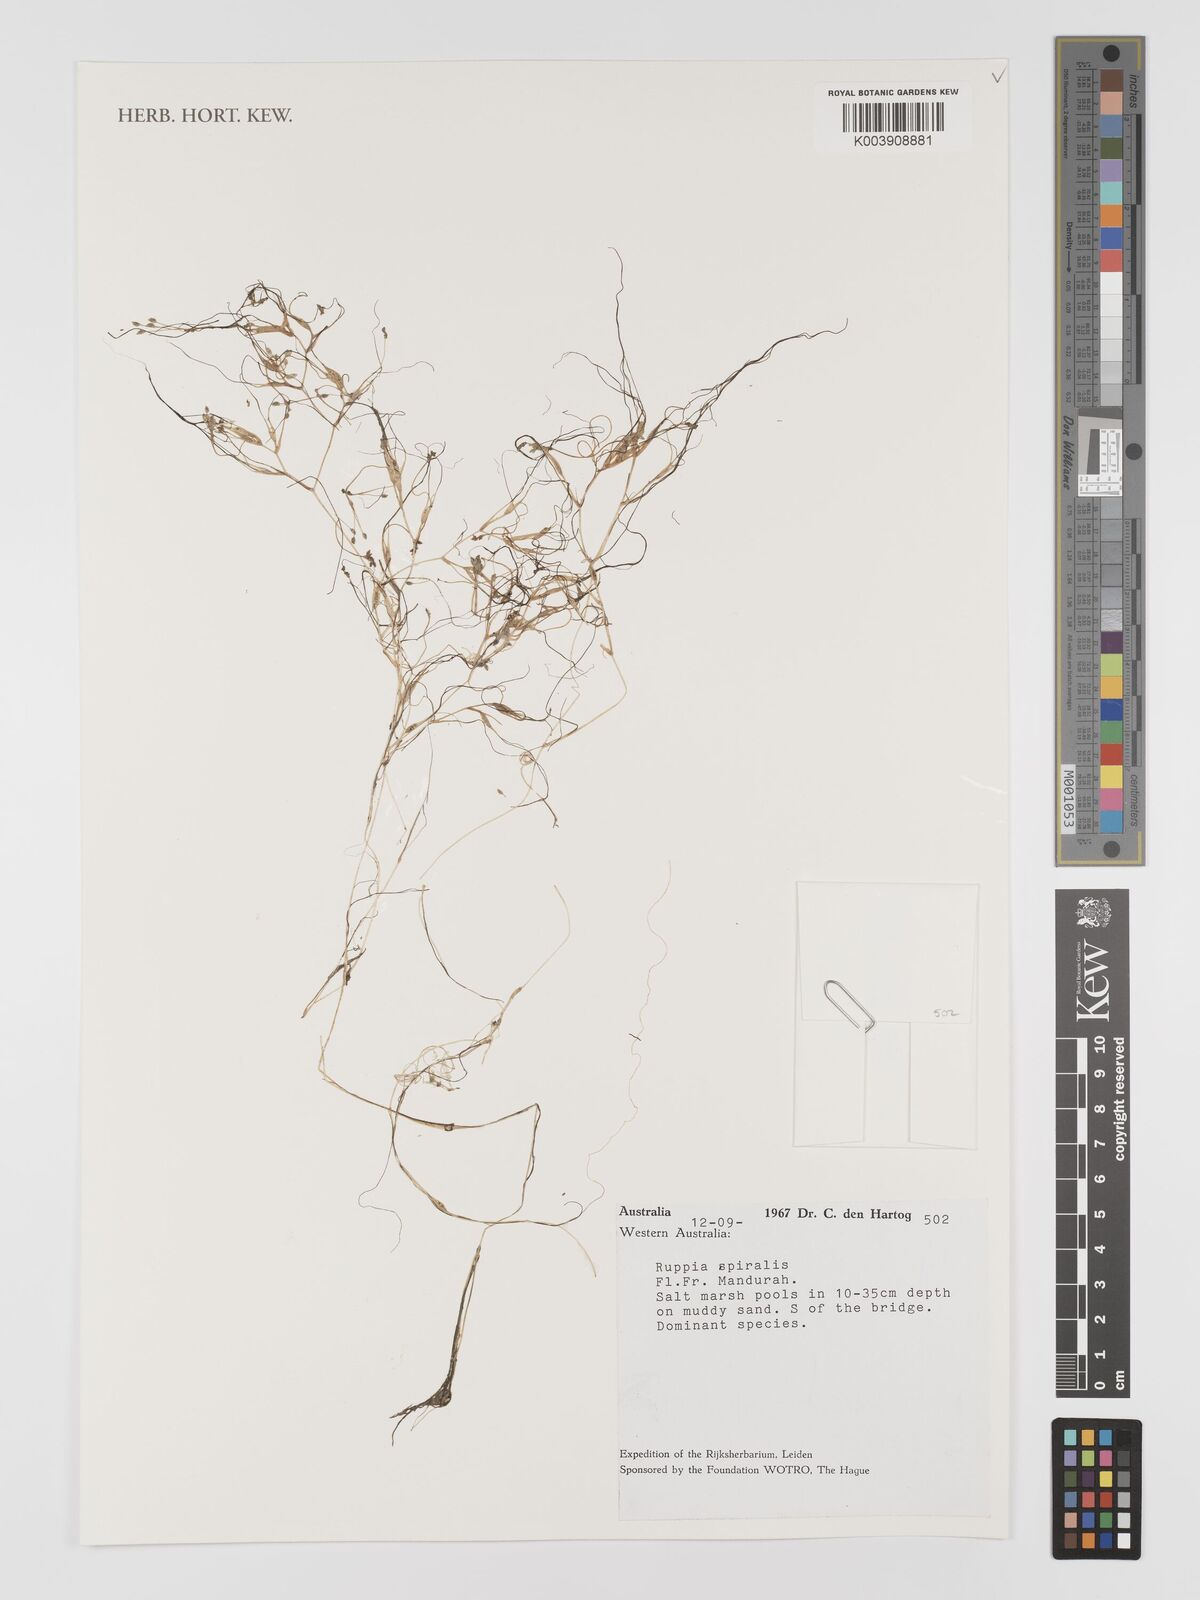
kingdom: Plantae
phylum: Tracheophyta
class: Liliopsida
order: Alismatales
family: Ruppiaceae
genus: Ruppia
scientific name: Ruppia
